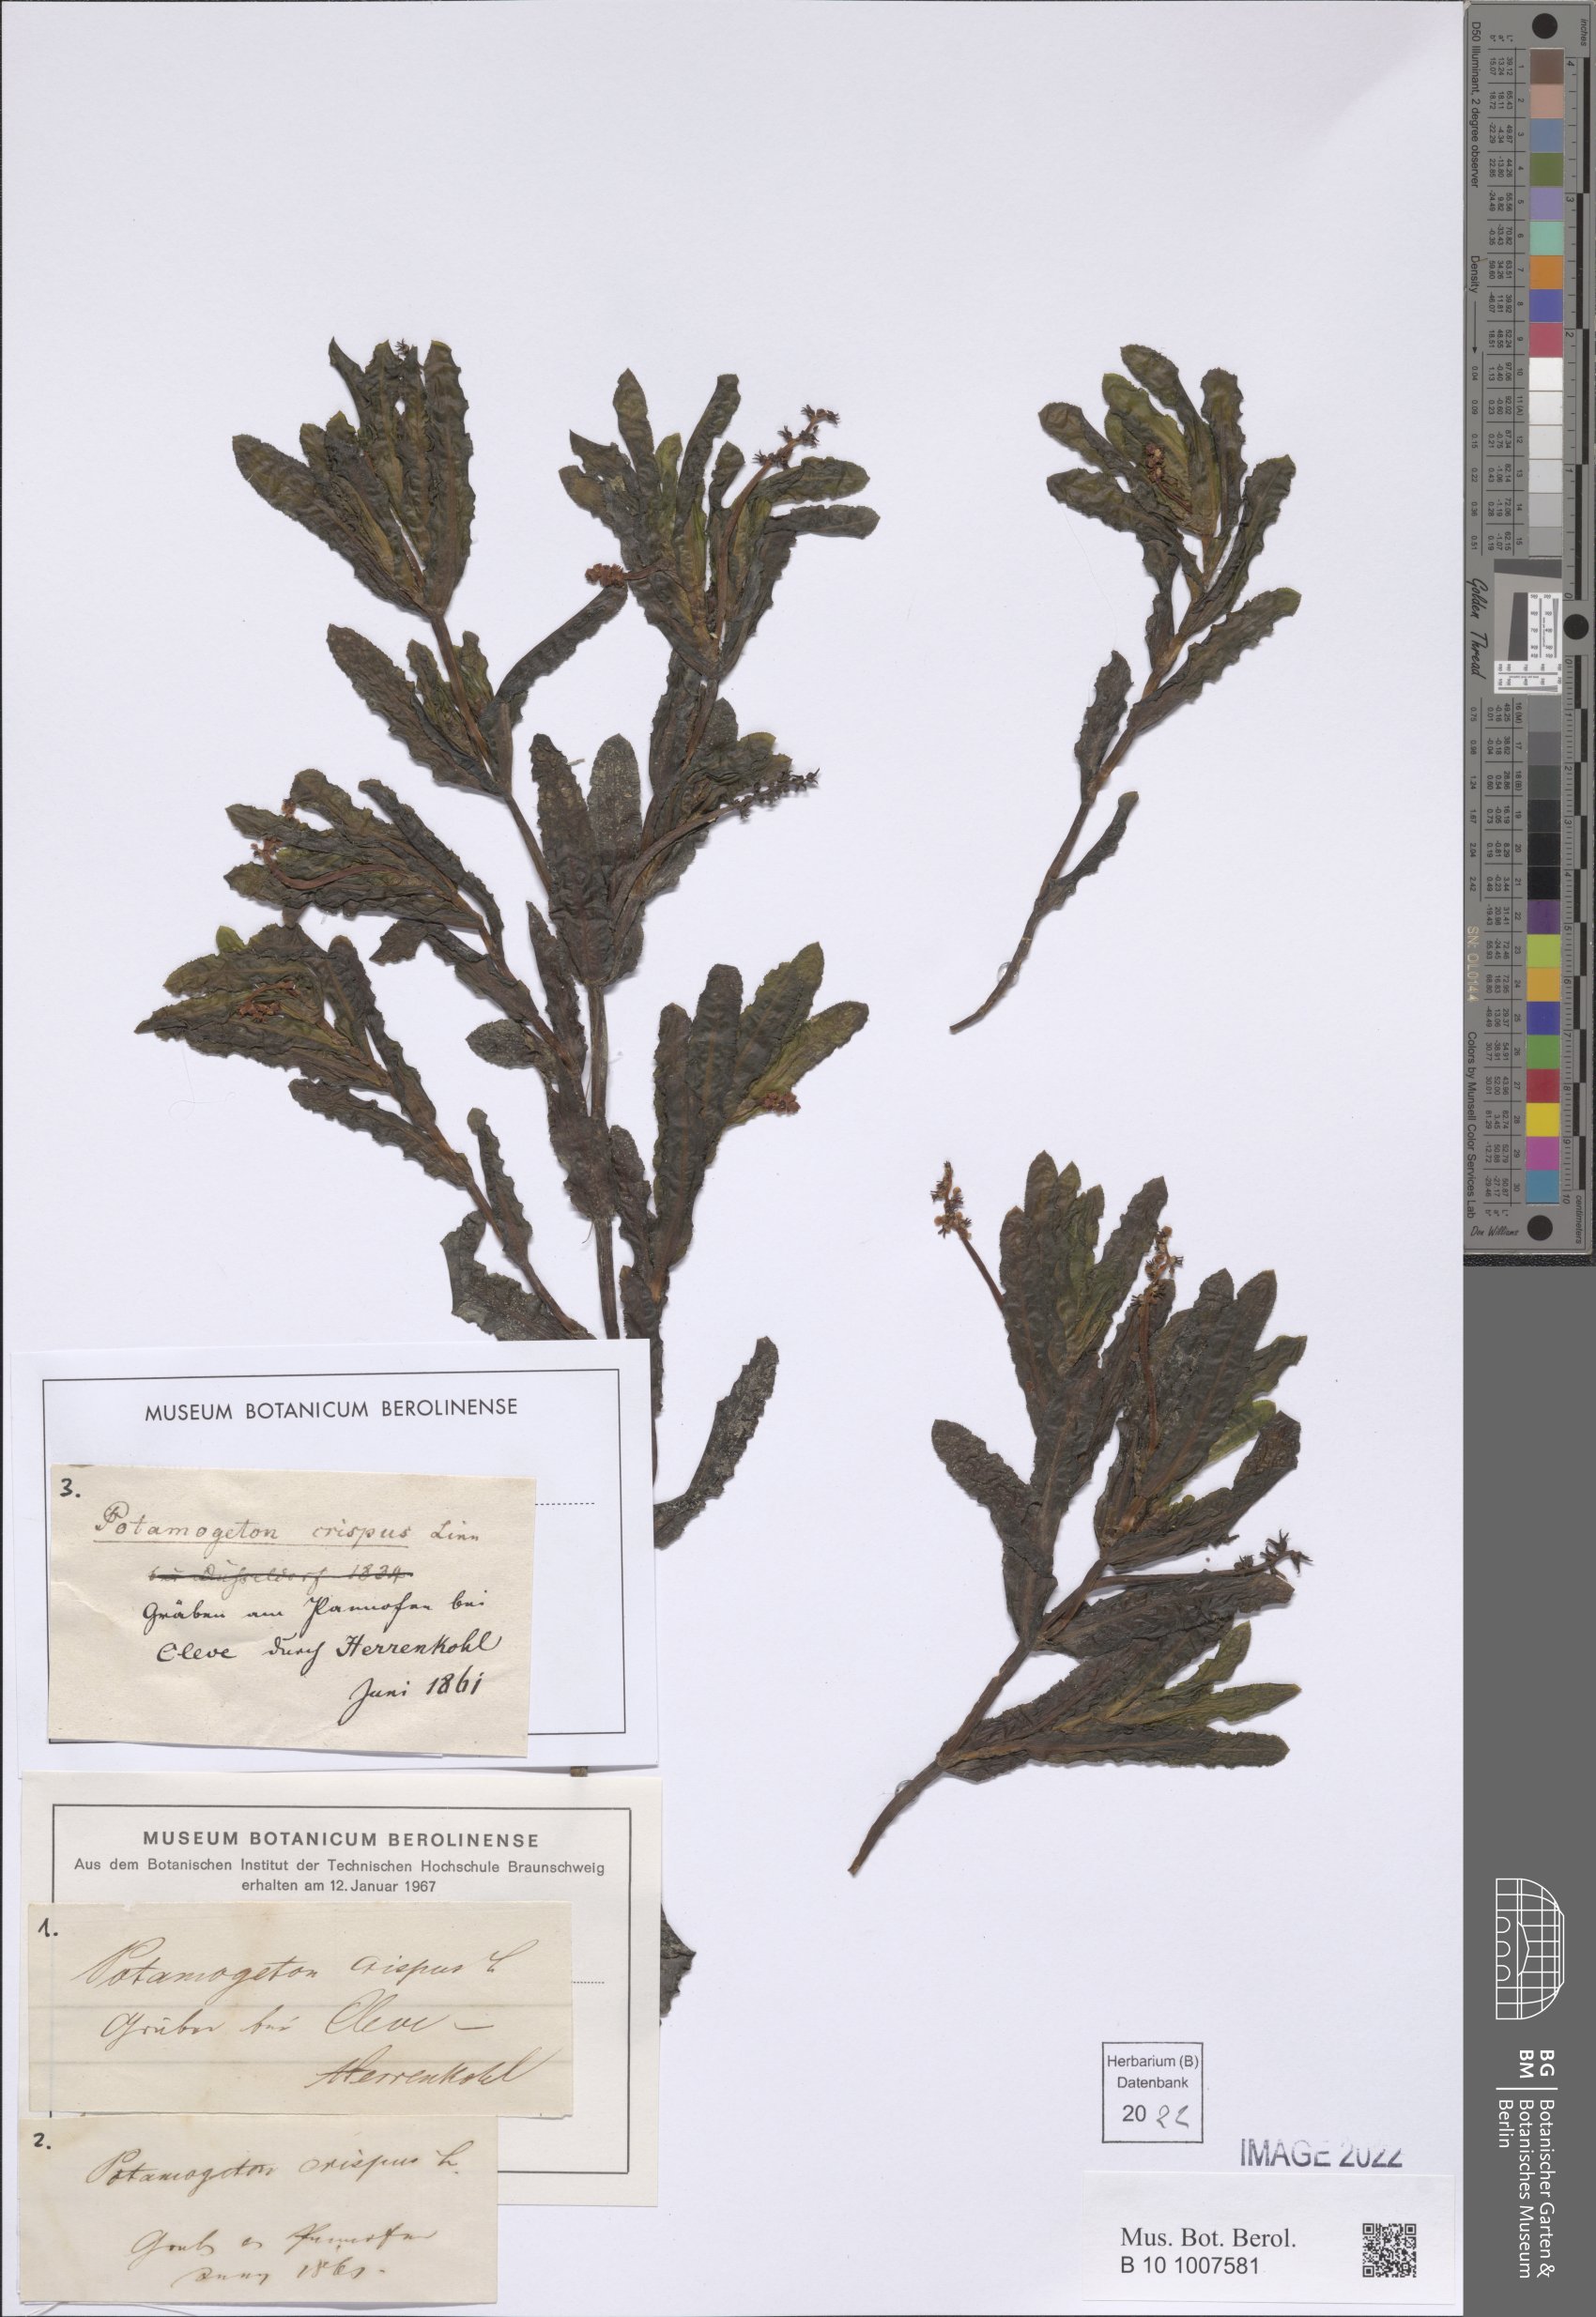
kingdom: Plantae
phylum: Tracheophyta
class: Liliopsida
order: Alismatales
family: Potamogetonaceae
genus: Potamogeton
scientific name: Potamogeton crispus
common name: Curled pondweed
